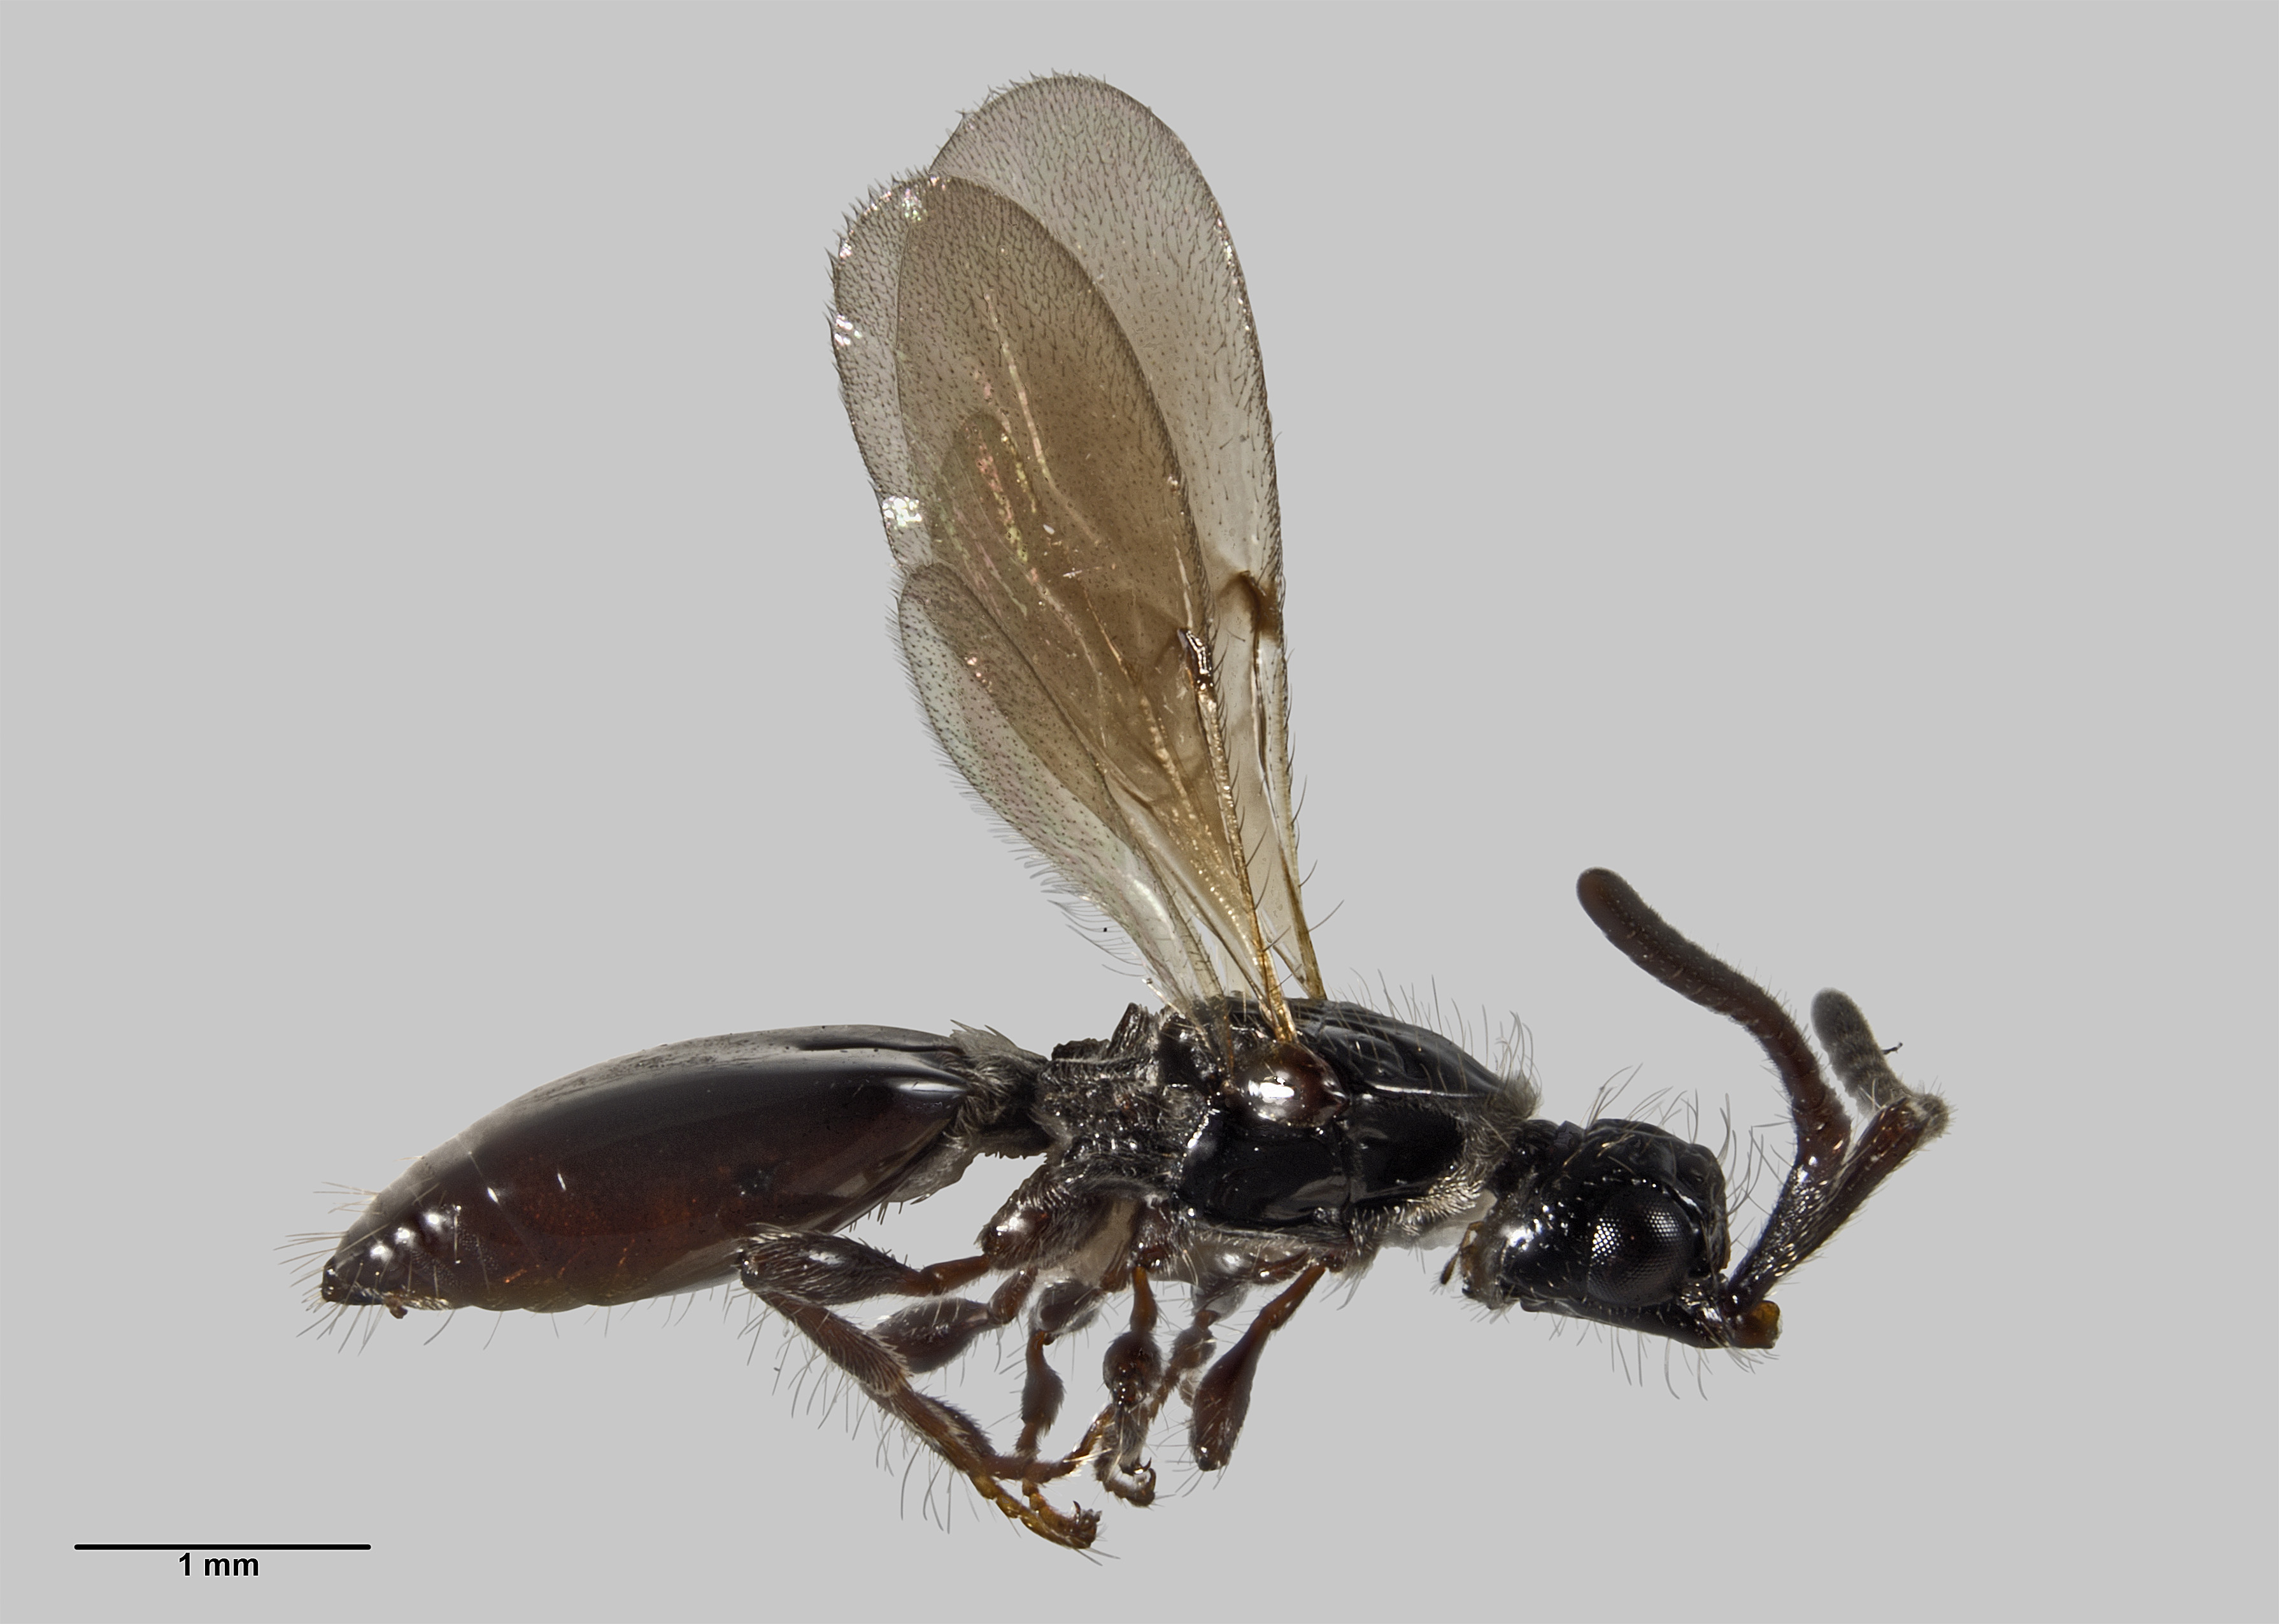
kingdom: Animalia
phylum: Arthropoda
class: Insecta
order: Hymenoptera
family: Diapriidae
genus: Neurogalesus
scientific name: Neurogalesus carinatus
